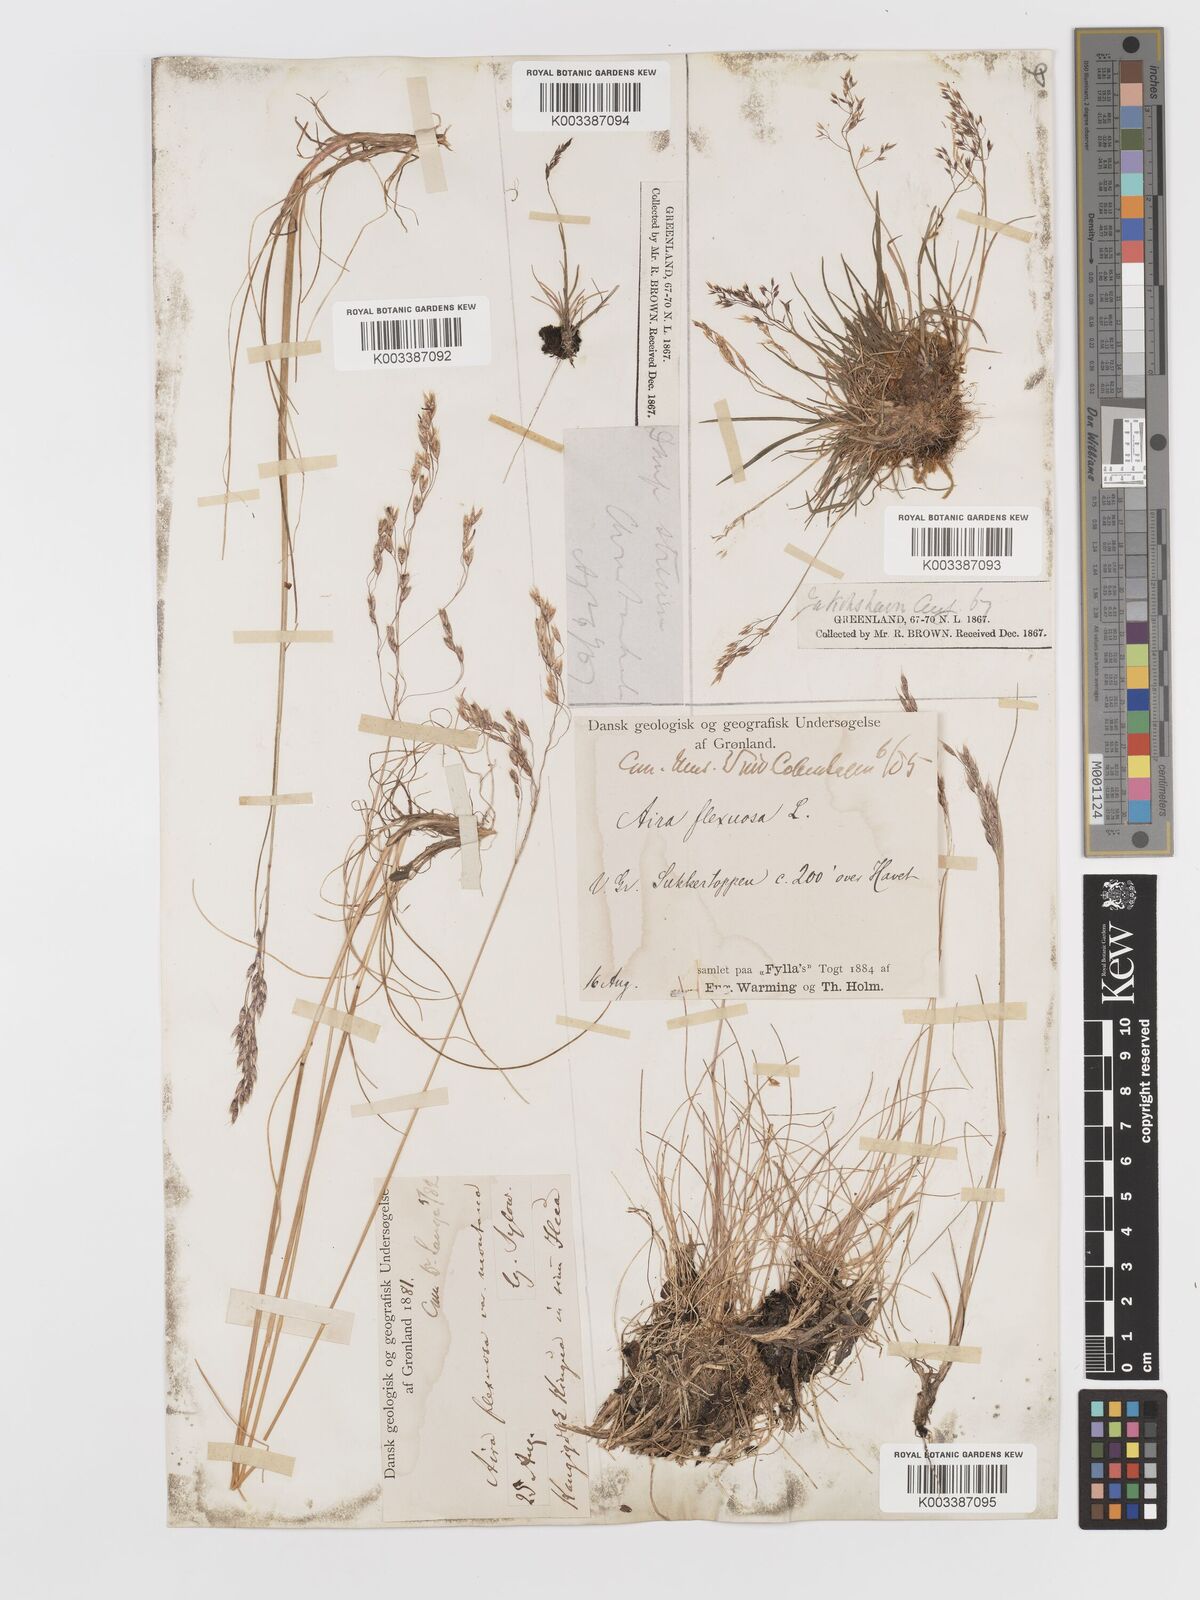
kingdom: Plantae
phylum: Tracheophyta
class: Liliopsida
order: Poales
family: Poaceae
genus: Avenella
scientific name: Avenella flexuosa
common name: Wavy hairgrass
